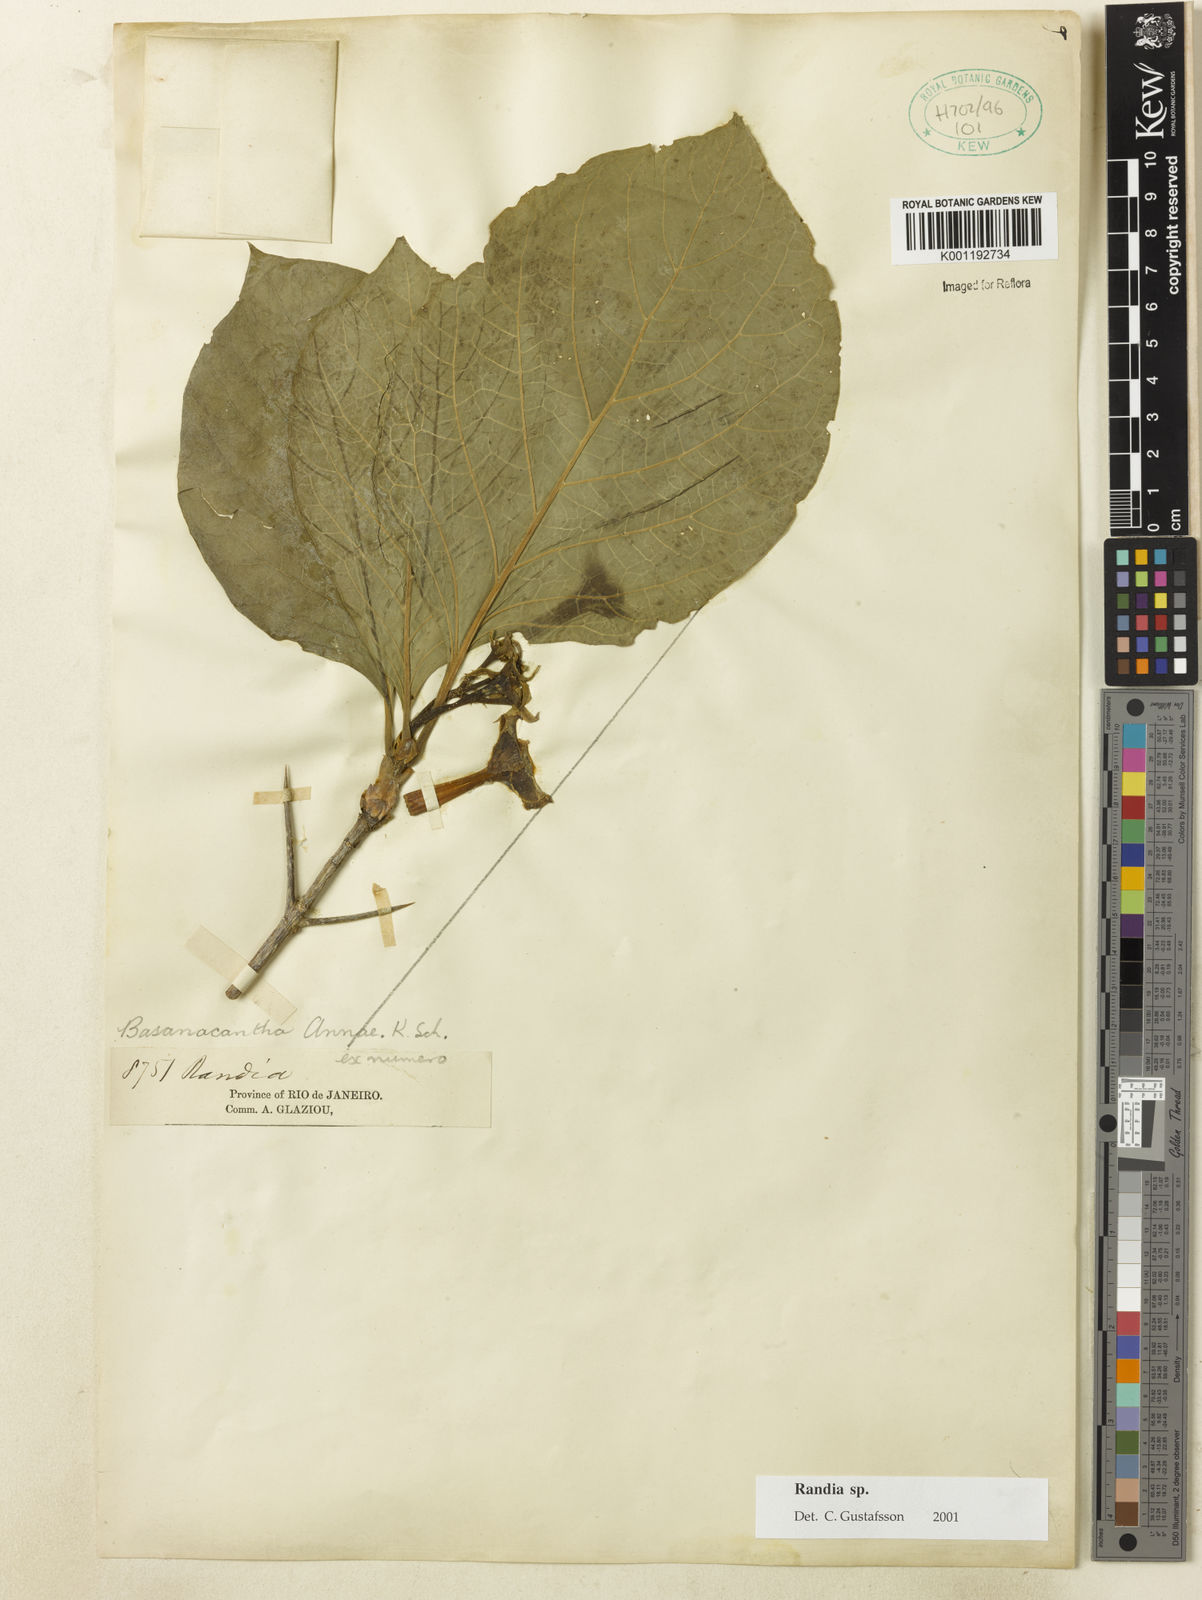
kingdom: Plantae
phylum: Tracheophyta
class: Magnoliopsida
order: Gentianales
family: Rubiaceae
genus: Randia
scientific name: Randia
